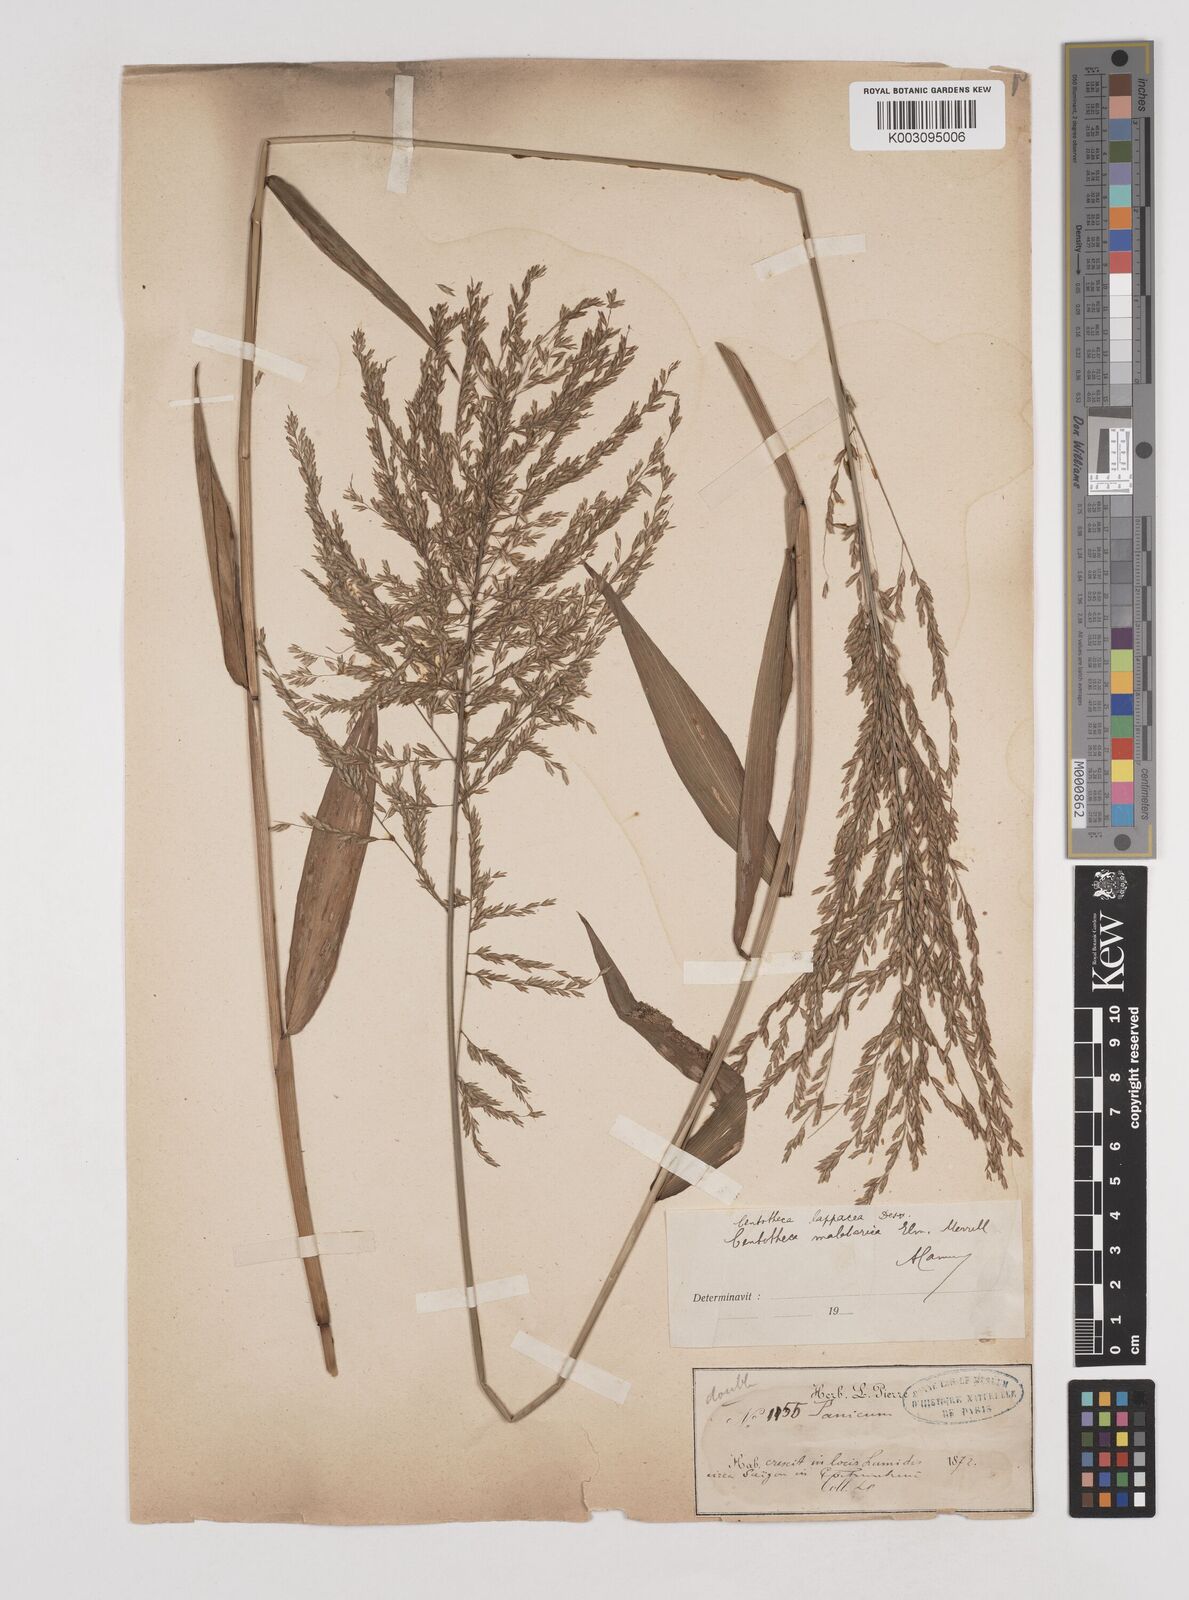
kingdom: Plantae
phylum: Tracheophyta
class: Liliopsida
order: Poales
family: Poaceae
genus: Centotheca
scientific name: Centotheca lappacea
